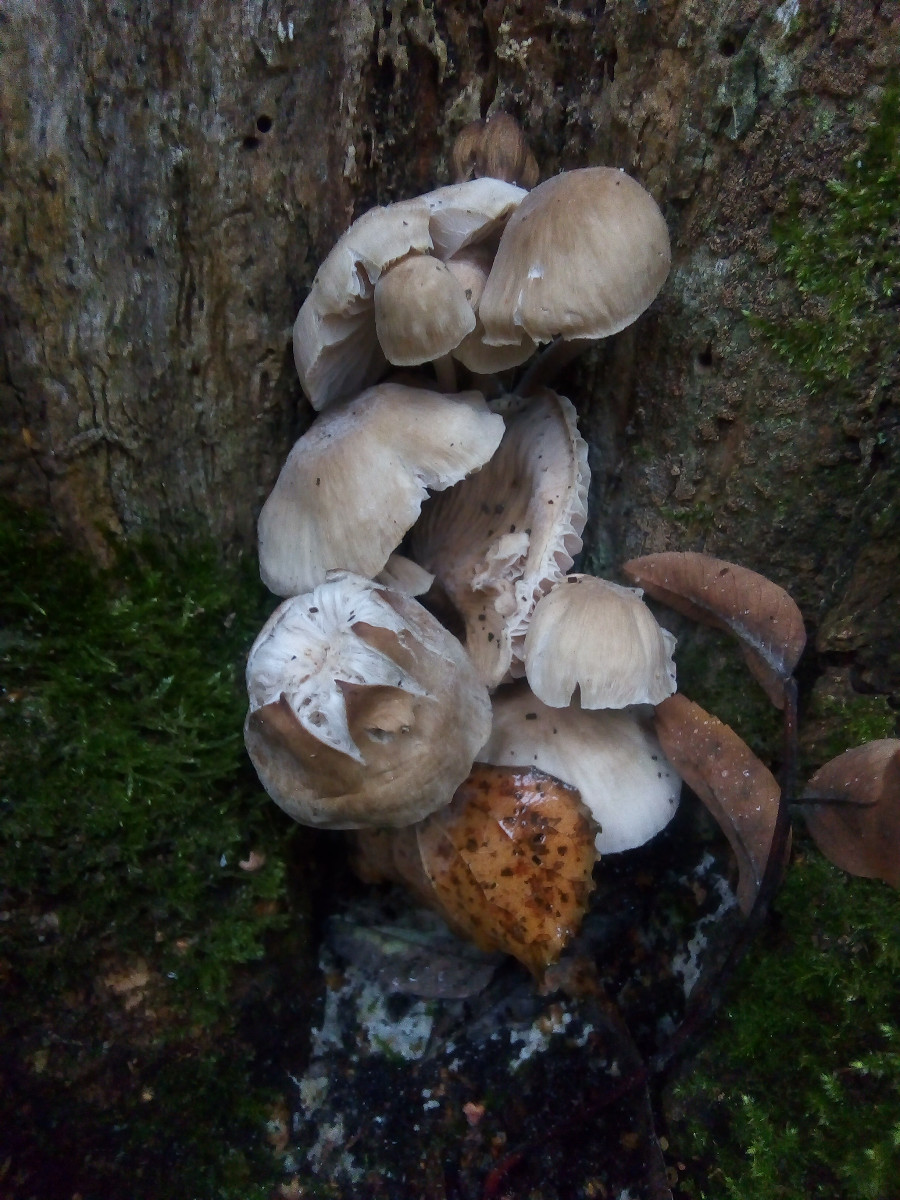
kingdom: Fungi
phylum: Basidiomycota
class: Agaricomycetes
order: Agaricales
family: Mycenaceae
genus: Mycena
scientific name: Mycena galericulata
